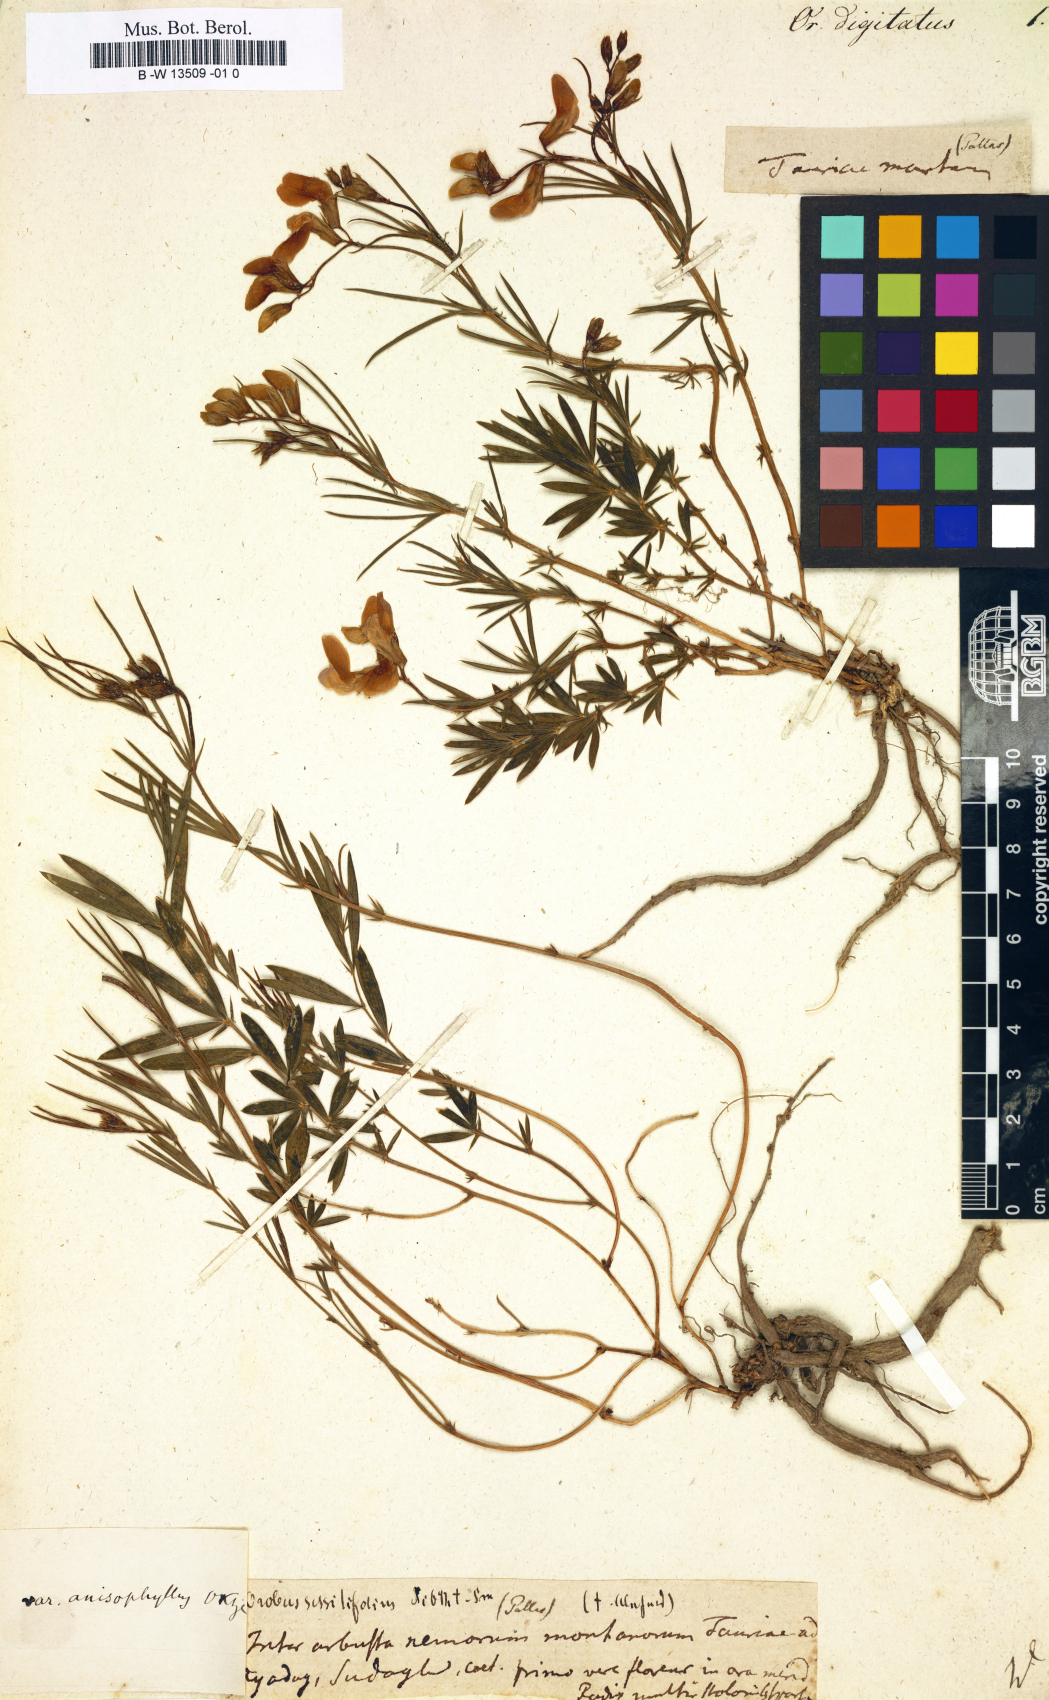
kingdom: Plantae
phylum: Tracheophyta
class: Magnoliopsida
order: Fabales
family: Fabaceae
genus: Lathyrus
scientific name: Lathyrus digitatus
